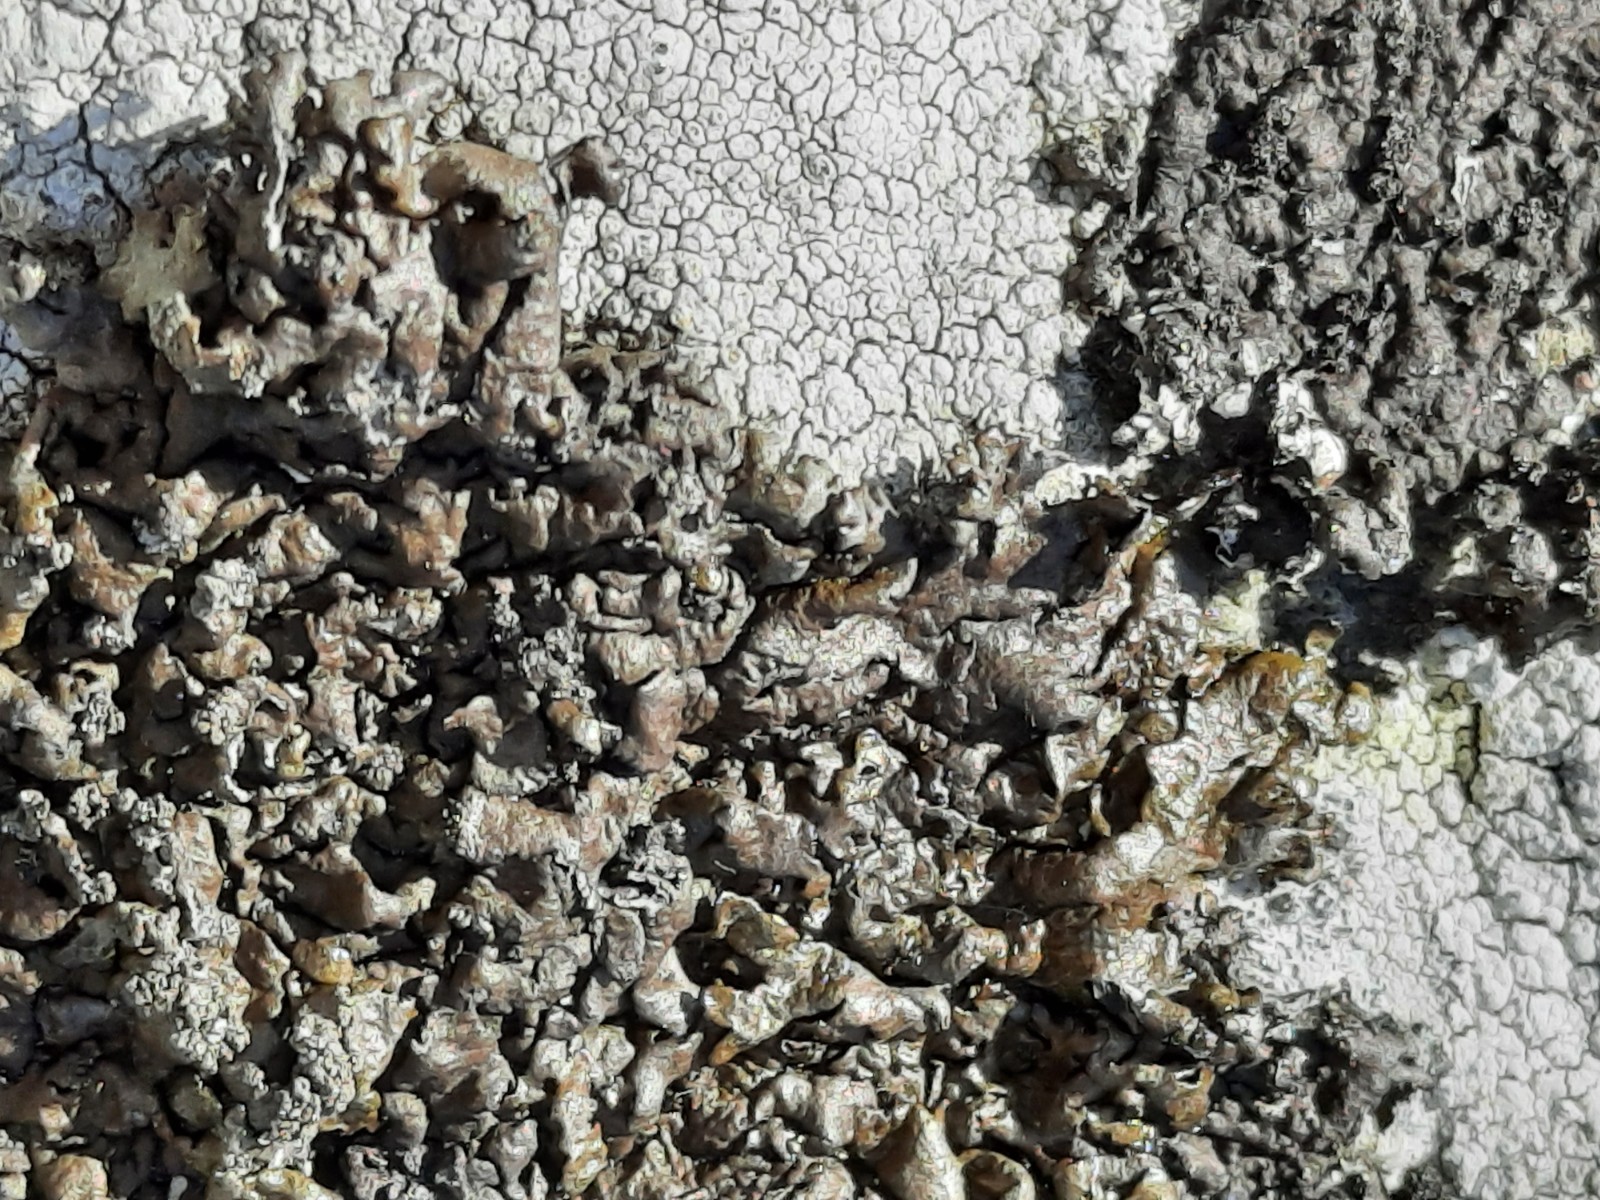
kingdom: Fungi
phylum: Ascomycota
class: Lecanoromycetes
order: Lecanorales
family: Parmeliaceae
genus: Xanthoparmelia
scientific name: Xanthoparmelia loxodes
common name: knudret skållav
